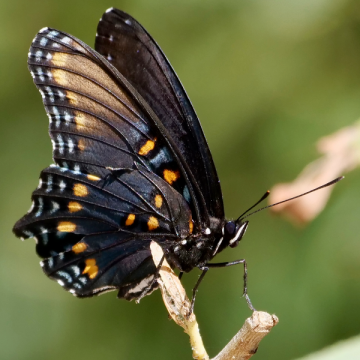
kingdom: Animalia
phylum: Arthropoda
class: Insecta
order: Lepidoptera
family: Nymphalidae
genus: Limenitis
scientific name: Limenitis arthemis
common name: Red-spotted Admiral
